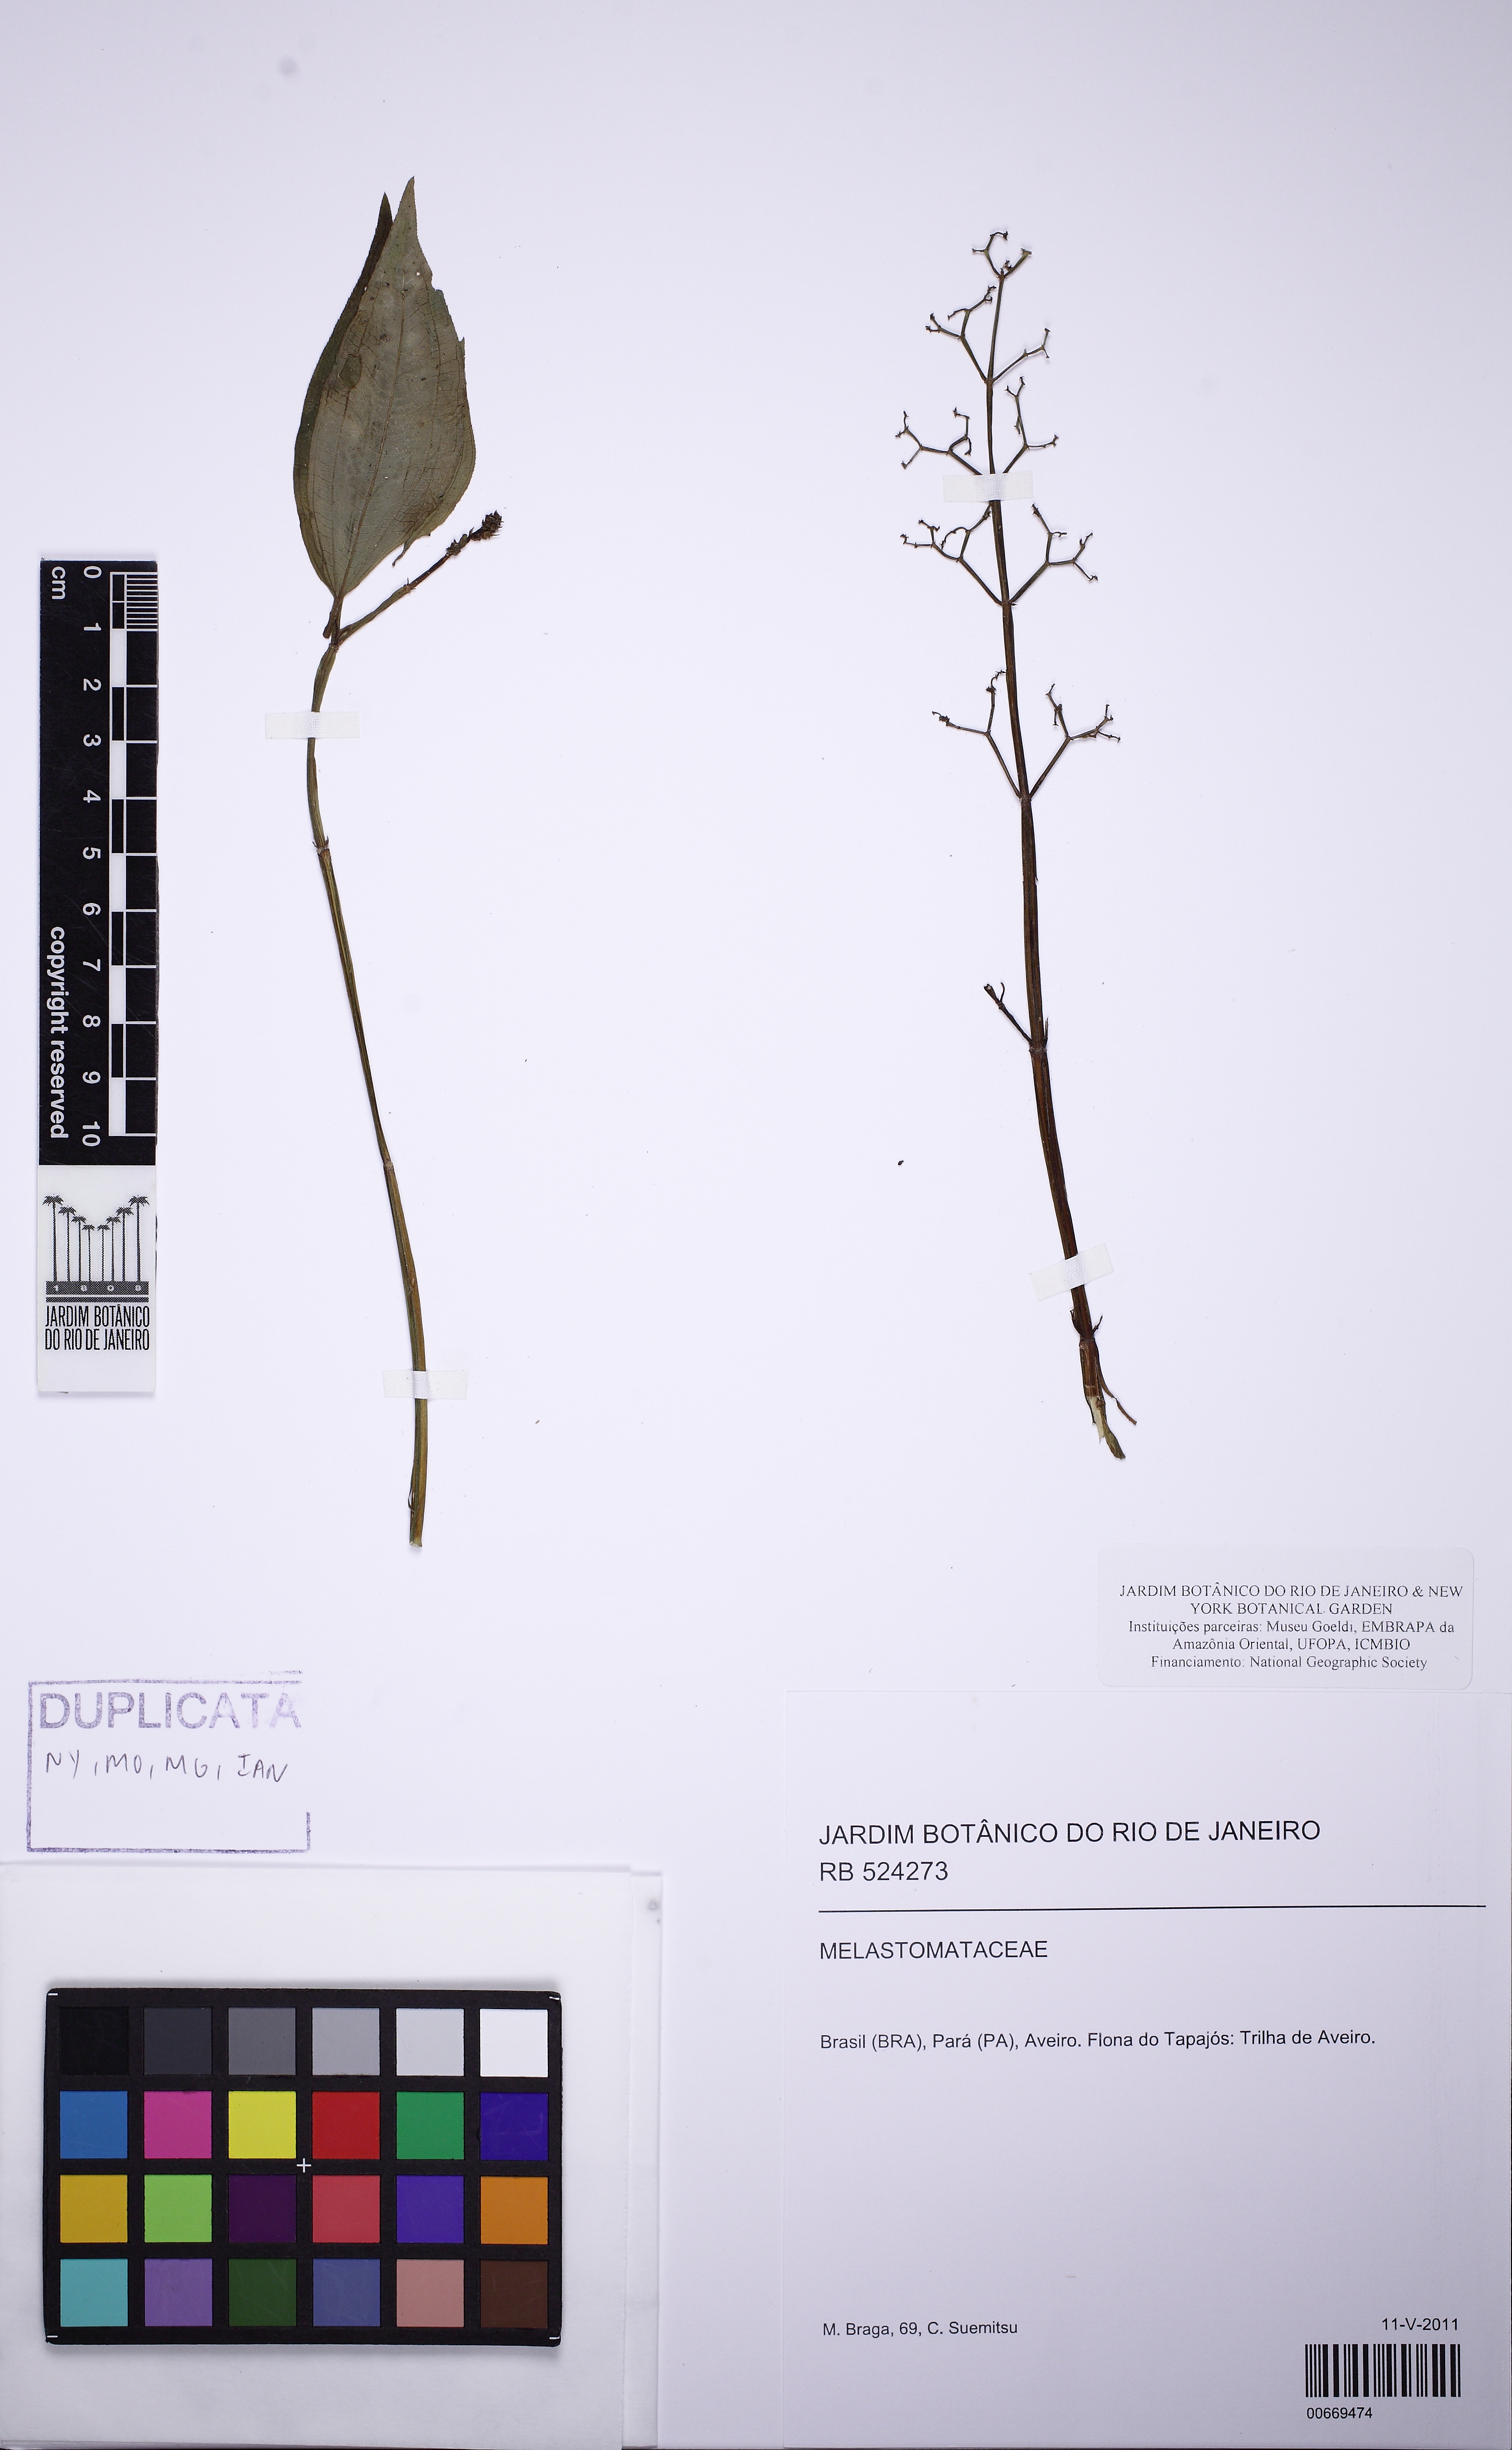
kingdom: Plantae
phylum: Tracheophyta
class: Magnoliopsida
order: Rosales
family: Urticaceae
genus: Pilea
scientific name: Pilea
